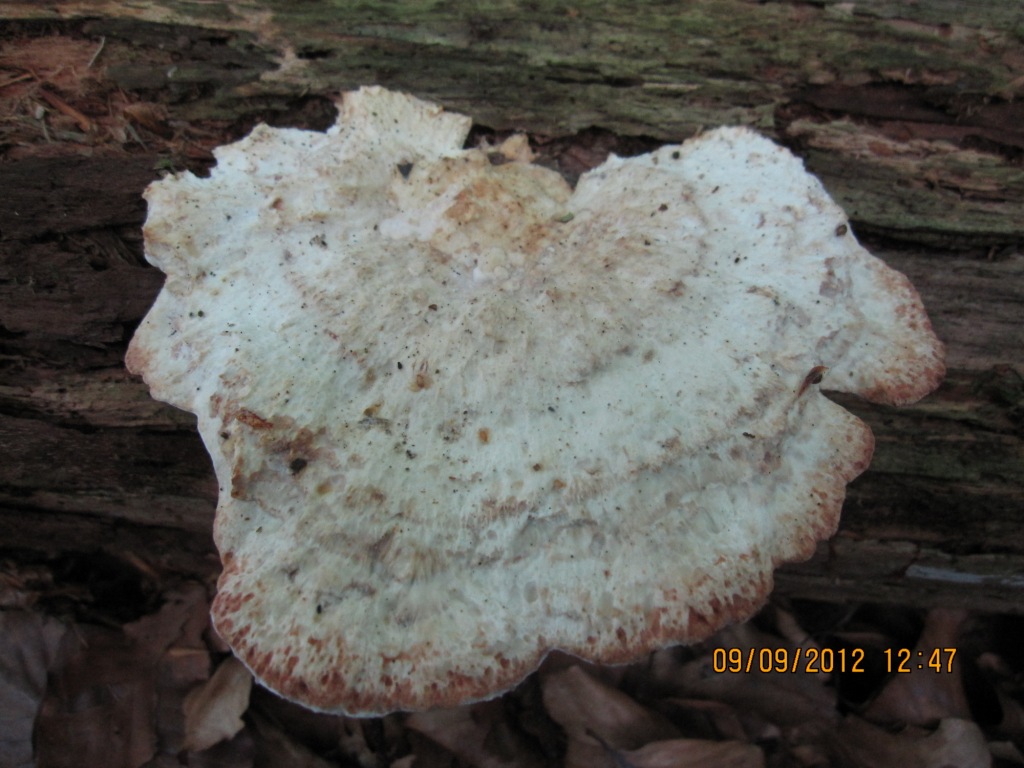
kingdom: Fungi
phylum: Basidiomycota
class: Agaricomycetes
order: Polyporales
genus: Calcipostia
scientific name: Calcipostia guttulata
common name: dråbe-kødporesvamp
